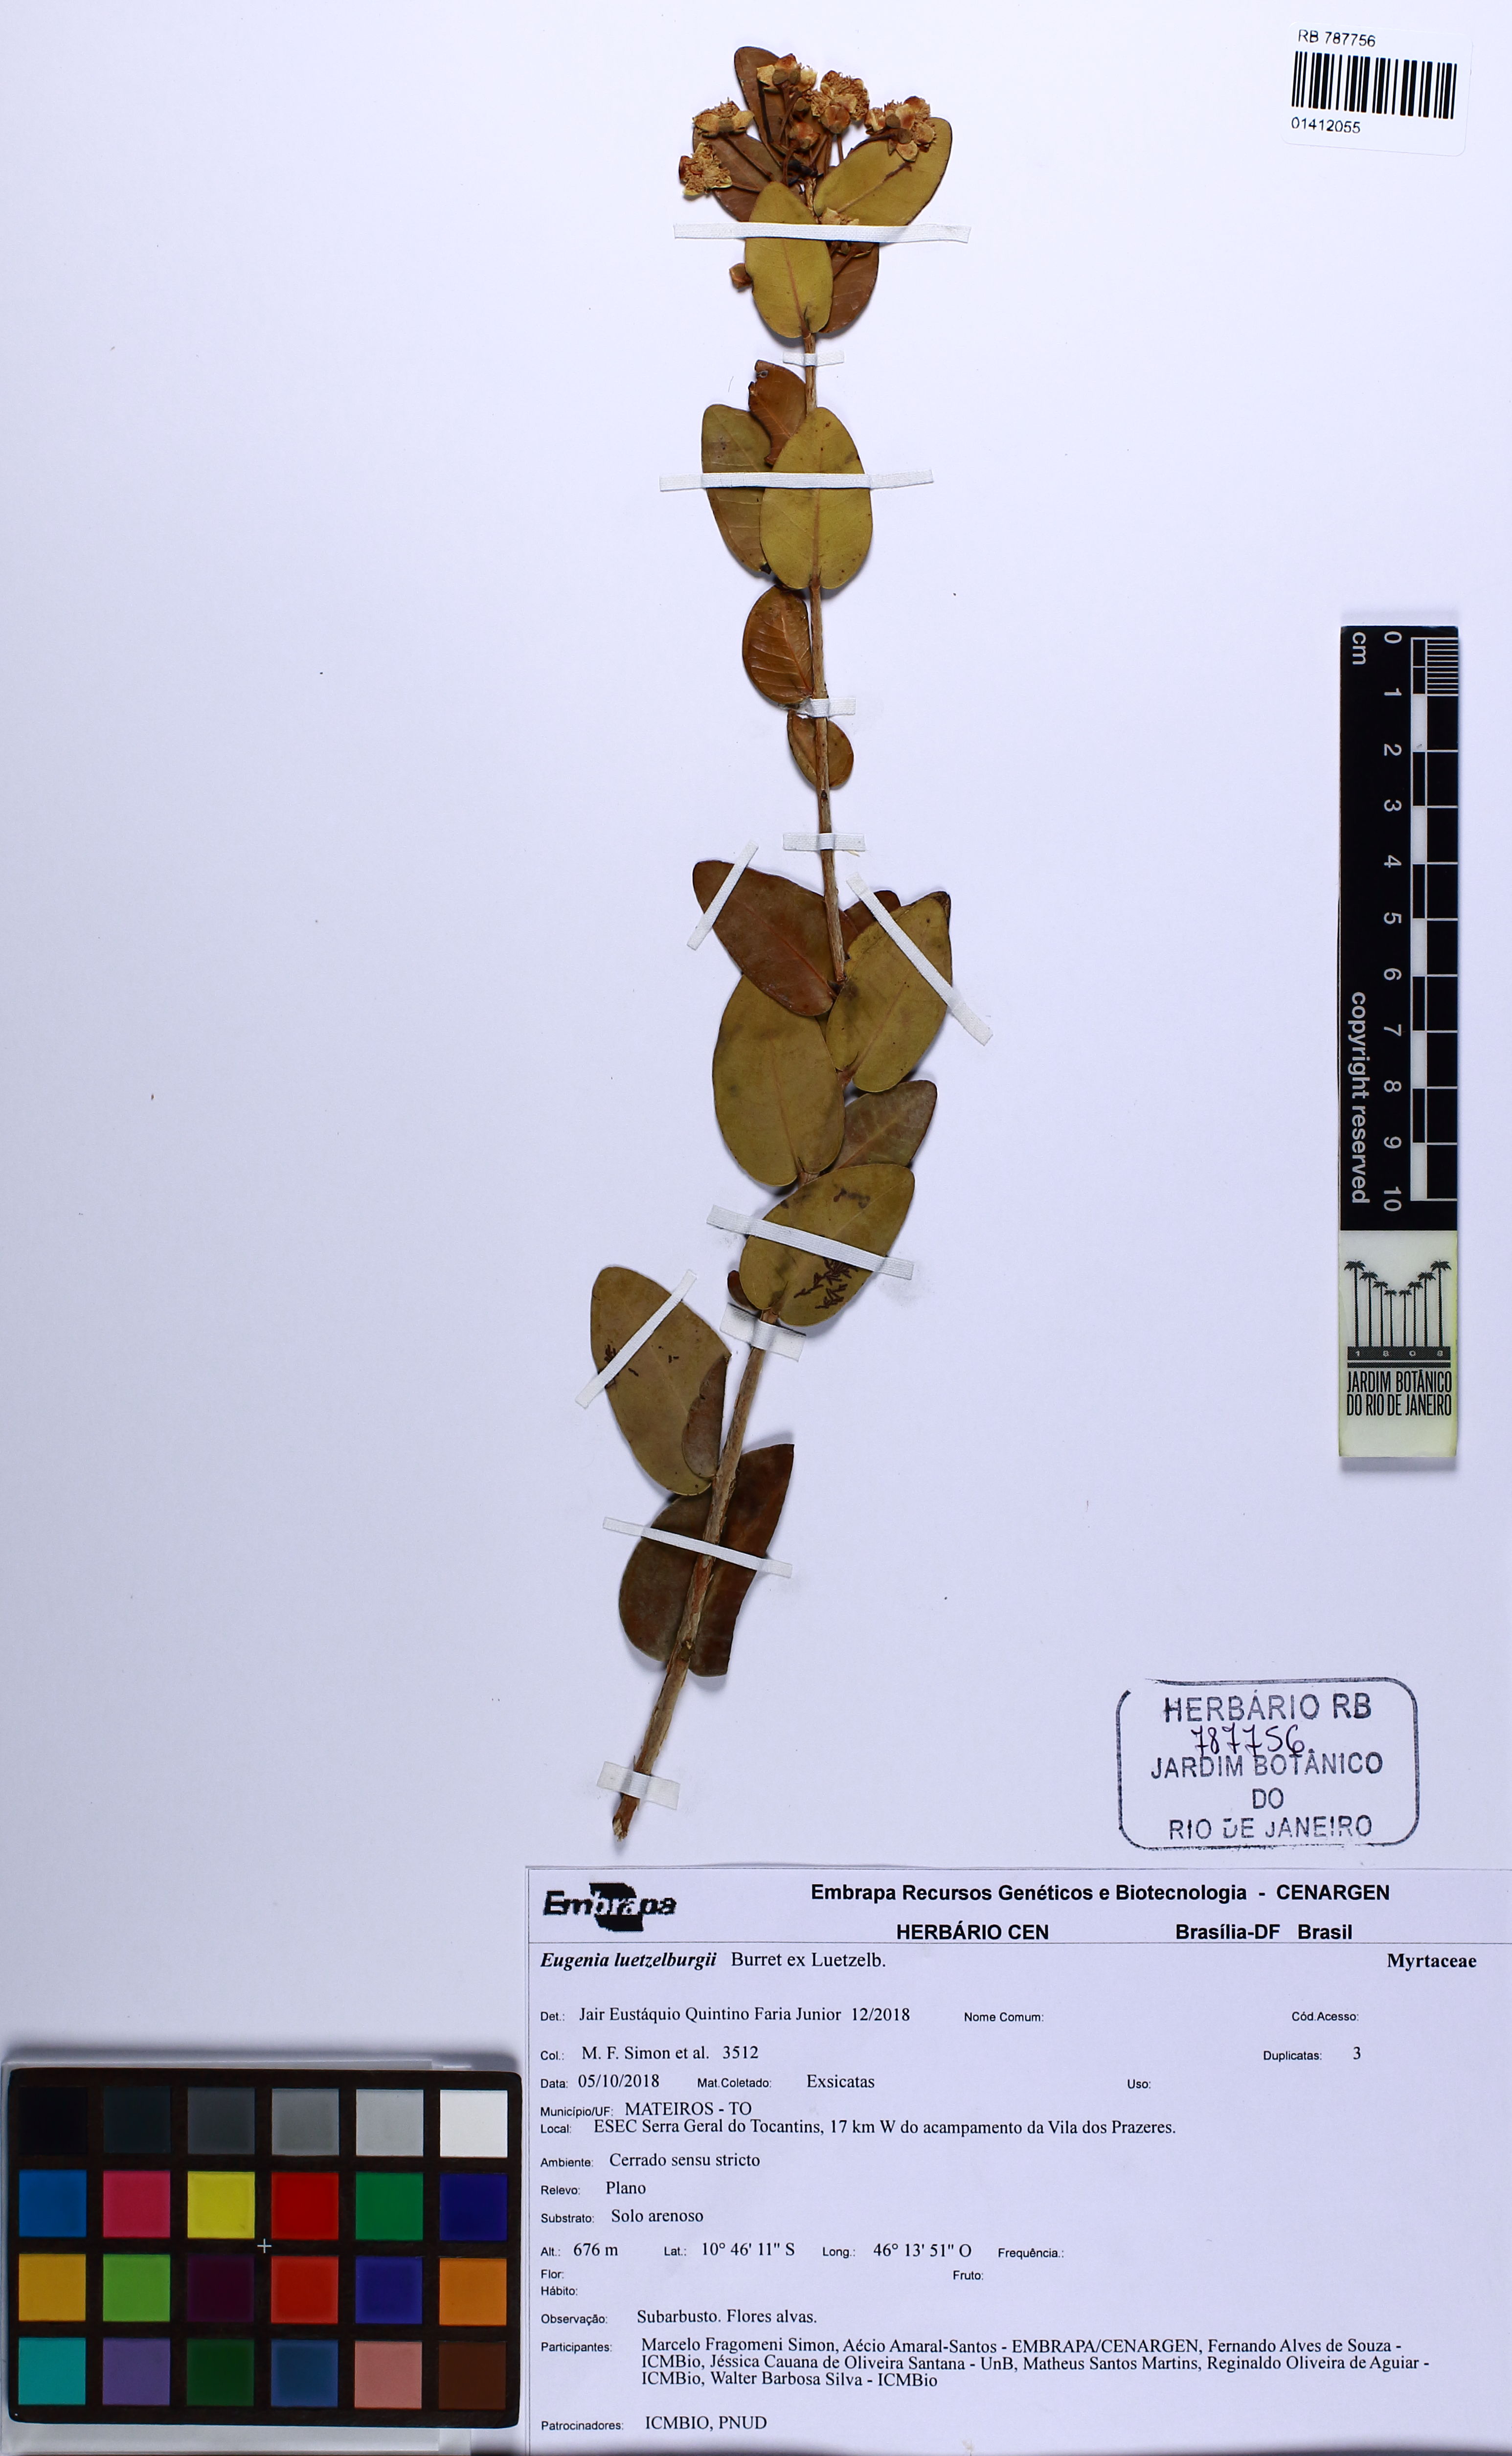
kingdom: Plantae
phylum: Tracheophyta
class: Magnoliopsida
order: Myrtales
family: Myrtaceae
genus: Eugenia
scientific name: Eugenia luetzelburgii
